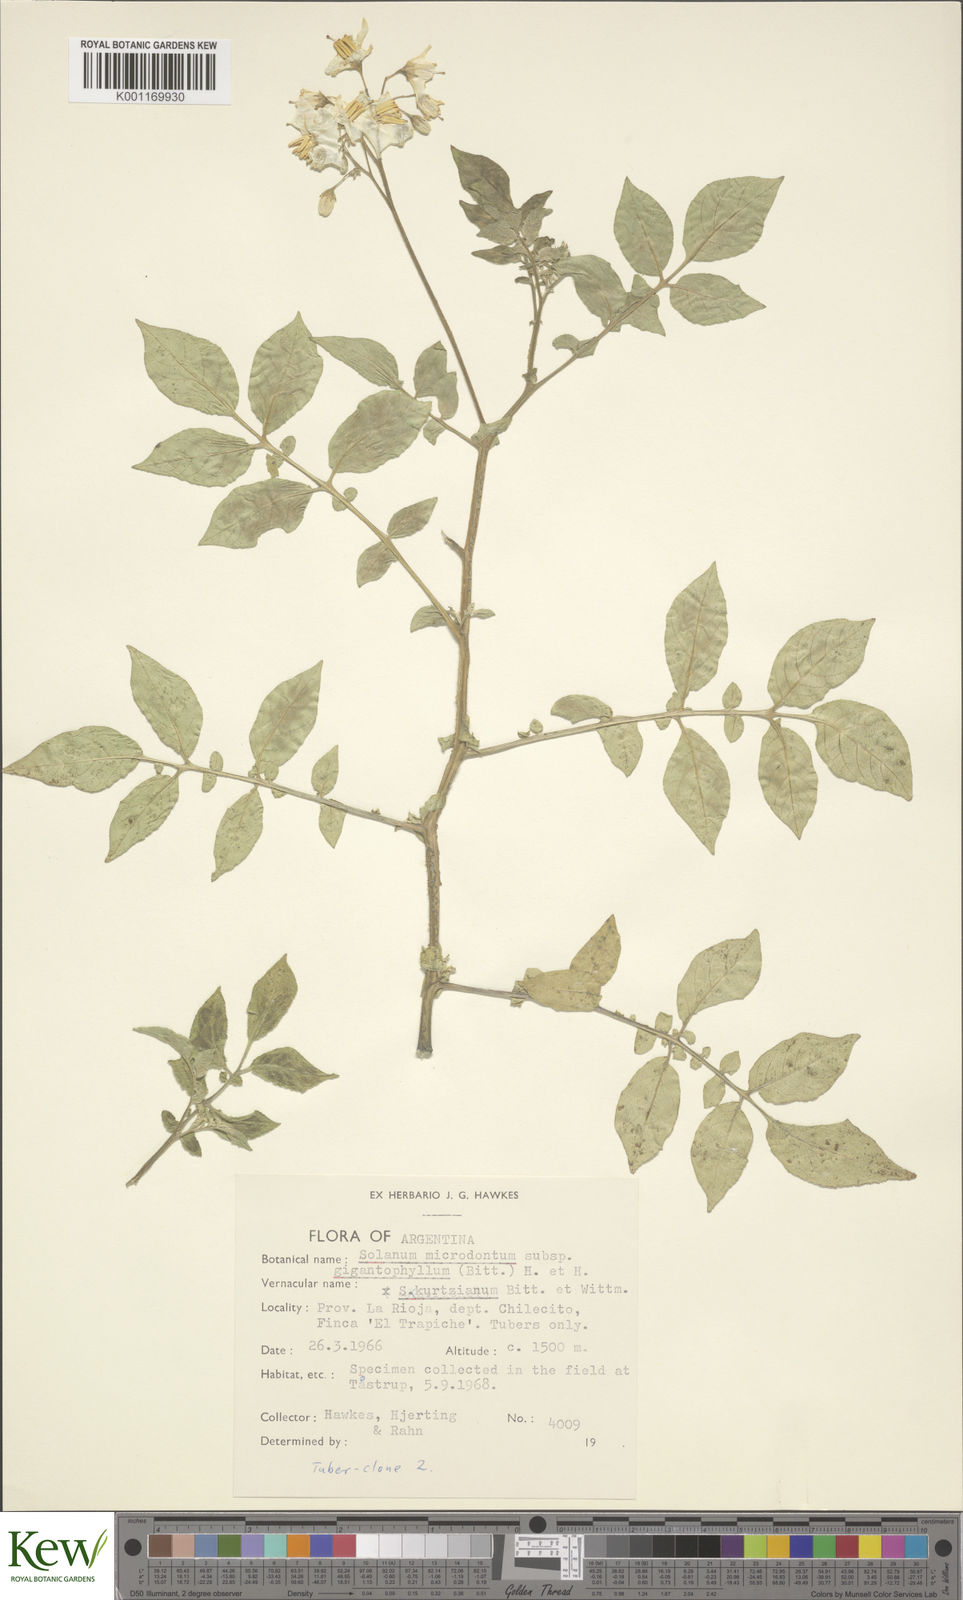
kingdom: Plantae
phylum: Tracheophyta
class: Magnoliopsida
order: Solanales
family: Solanaceae
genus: Solanum
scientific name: Solanum rechei
